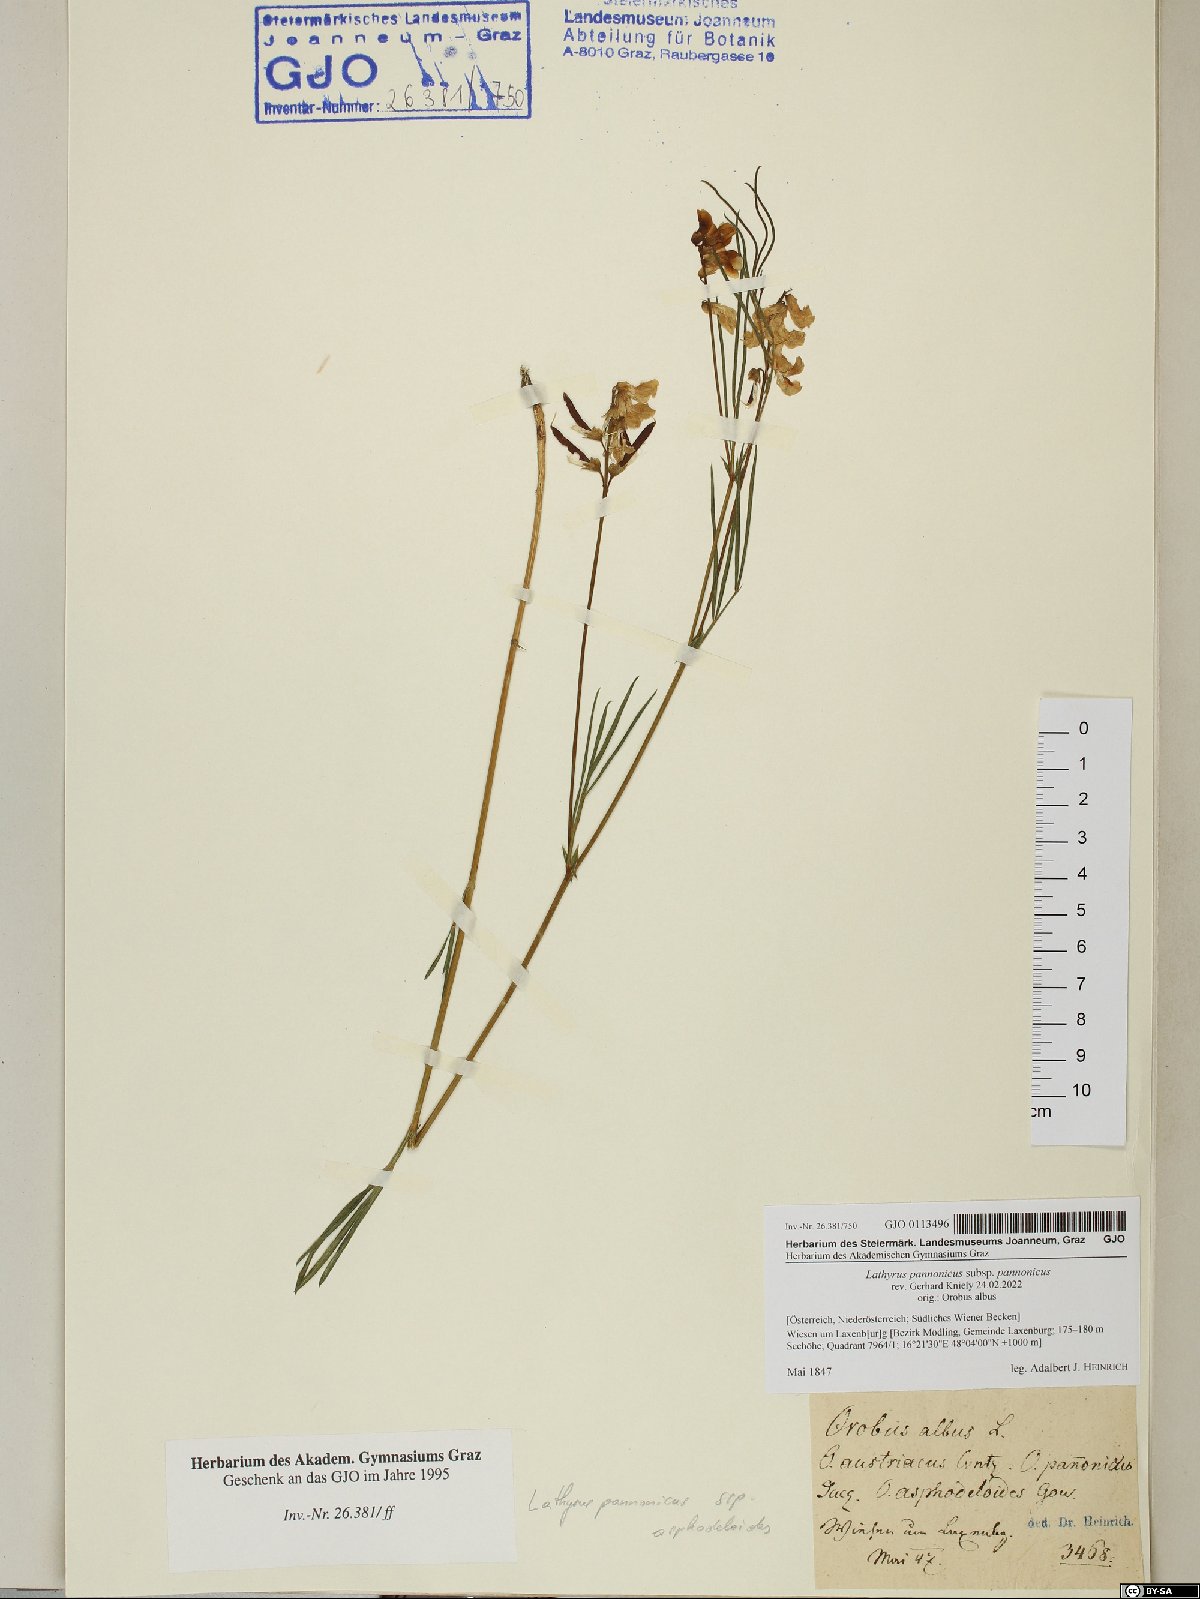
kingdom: Plantae
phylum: Tracheophyta
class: Magnoliopsida
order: Fabales
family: Fabaceae
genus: Lathyrus
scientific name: Lathyrus pannonicus
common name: Pea
